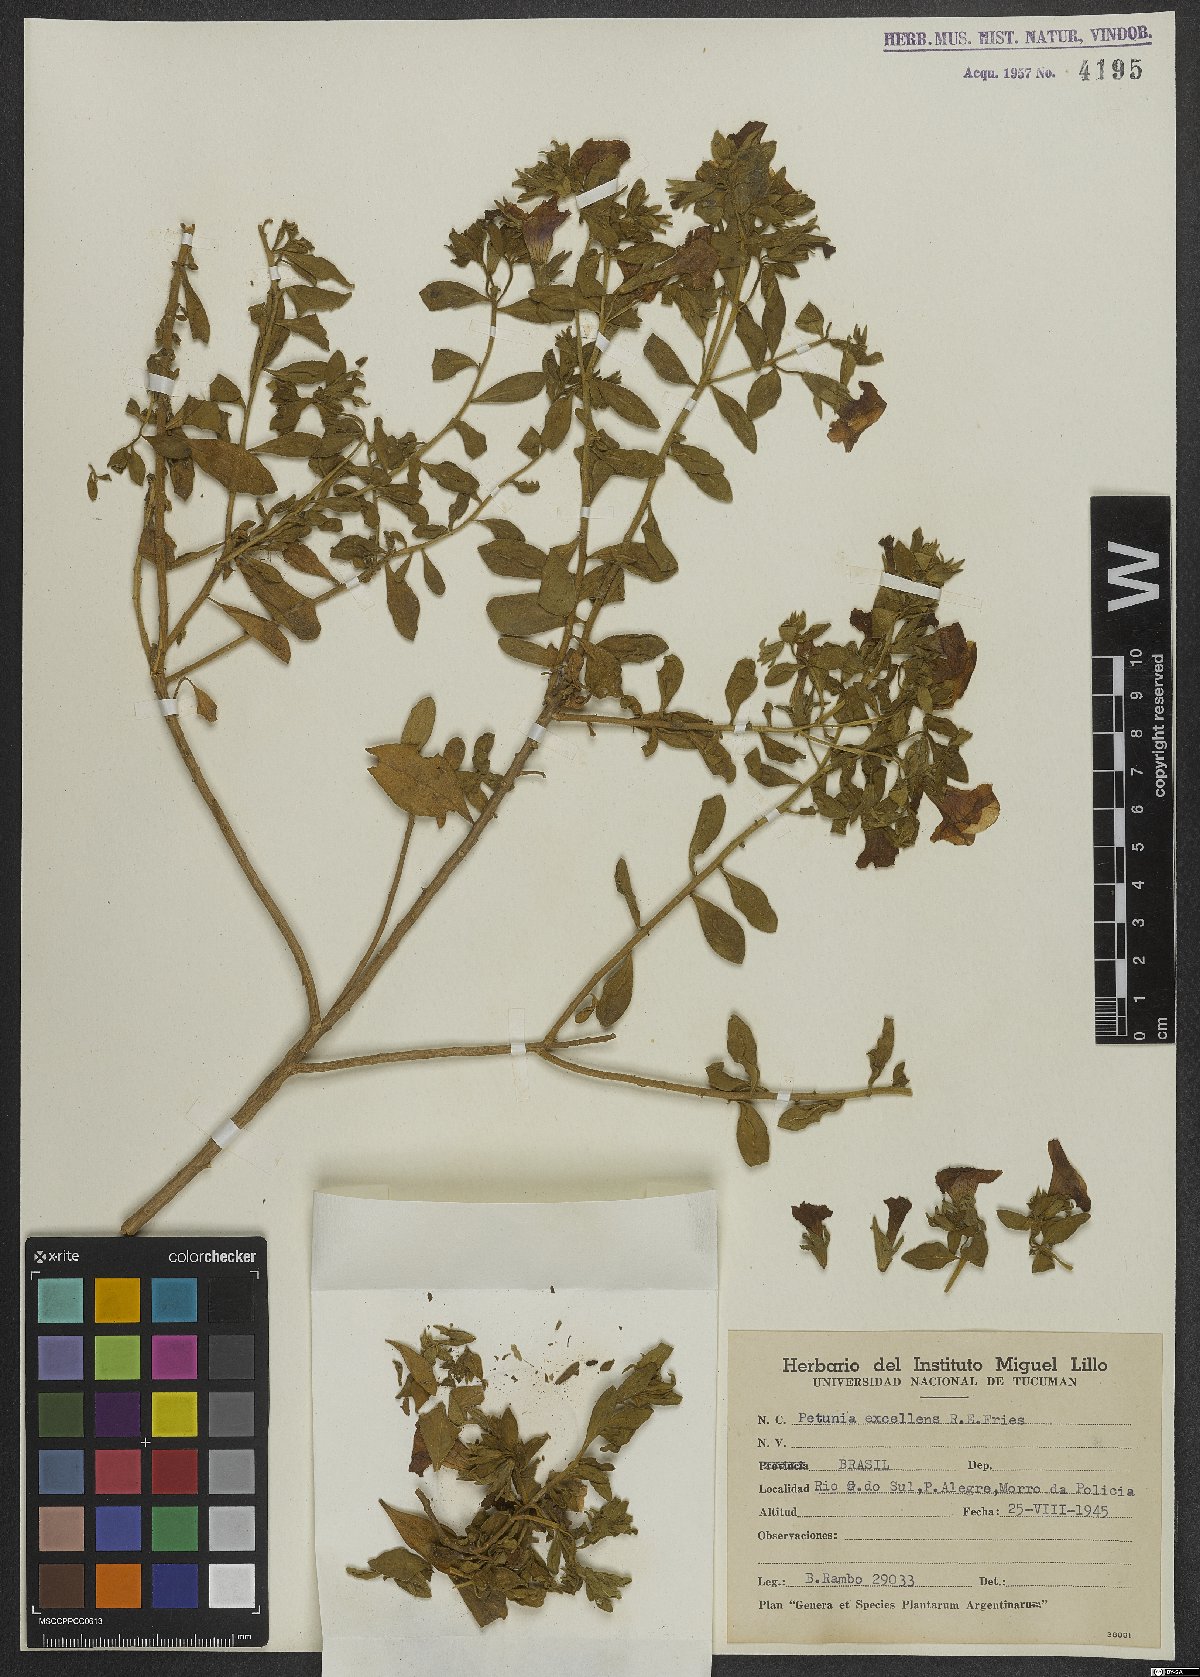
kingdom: Plantae
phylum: Tracheophyta
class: Magnoliopsida
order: Solanales
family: Solanaceae
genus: Calibrachoa
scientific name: Calibrachoa excellens
